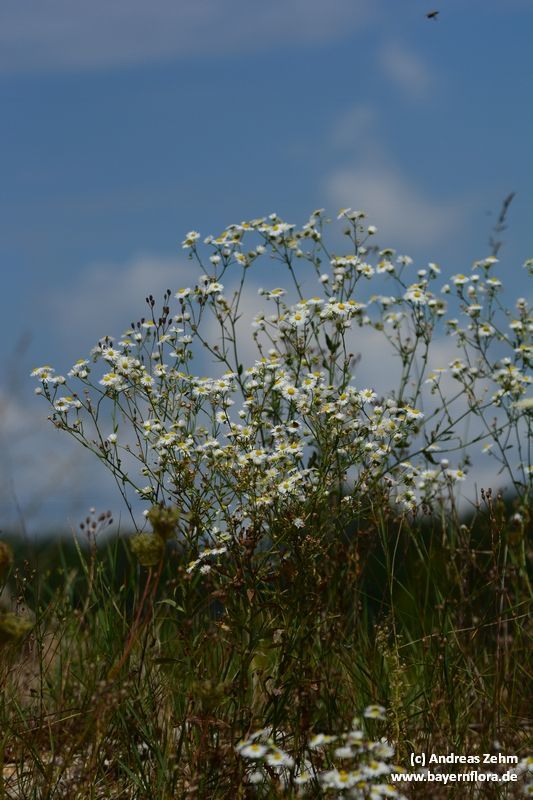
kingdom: Plantae
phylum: Tracheophyta
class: Magnoliopsida
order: Asterales
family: Asteraceae
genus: Erigeron
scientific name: Erigeron annuus
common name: Tall fleabane
